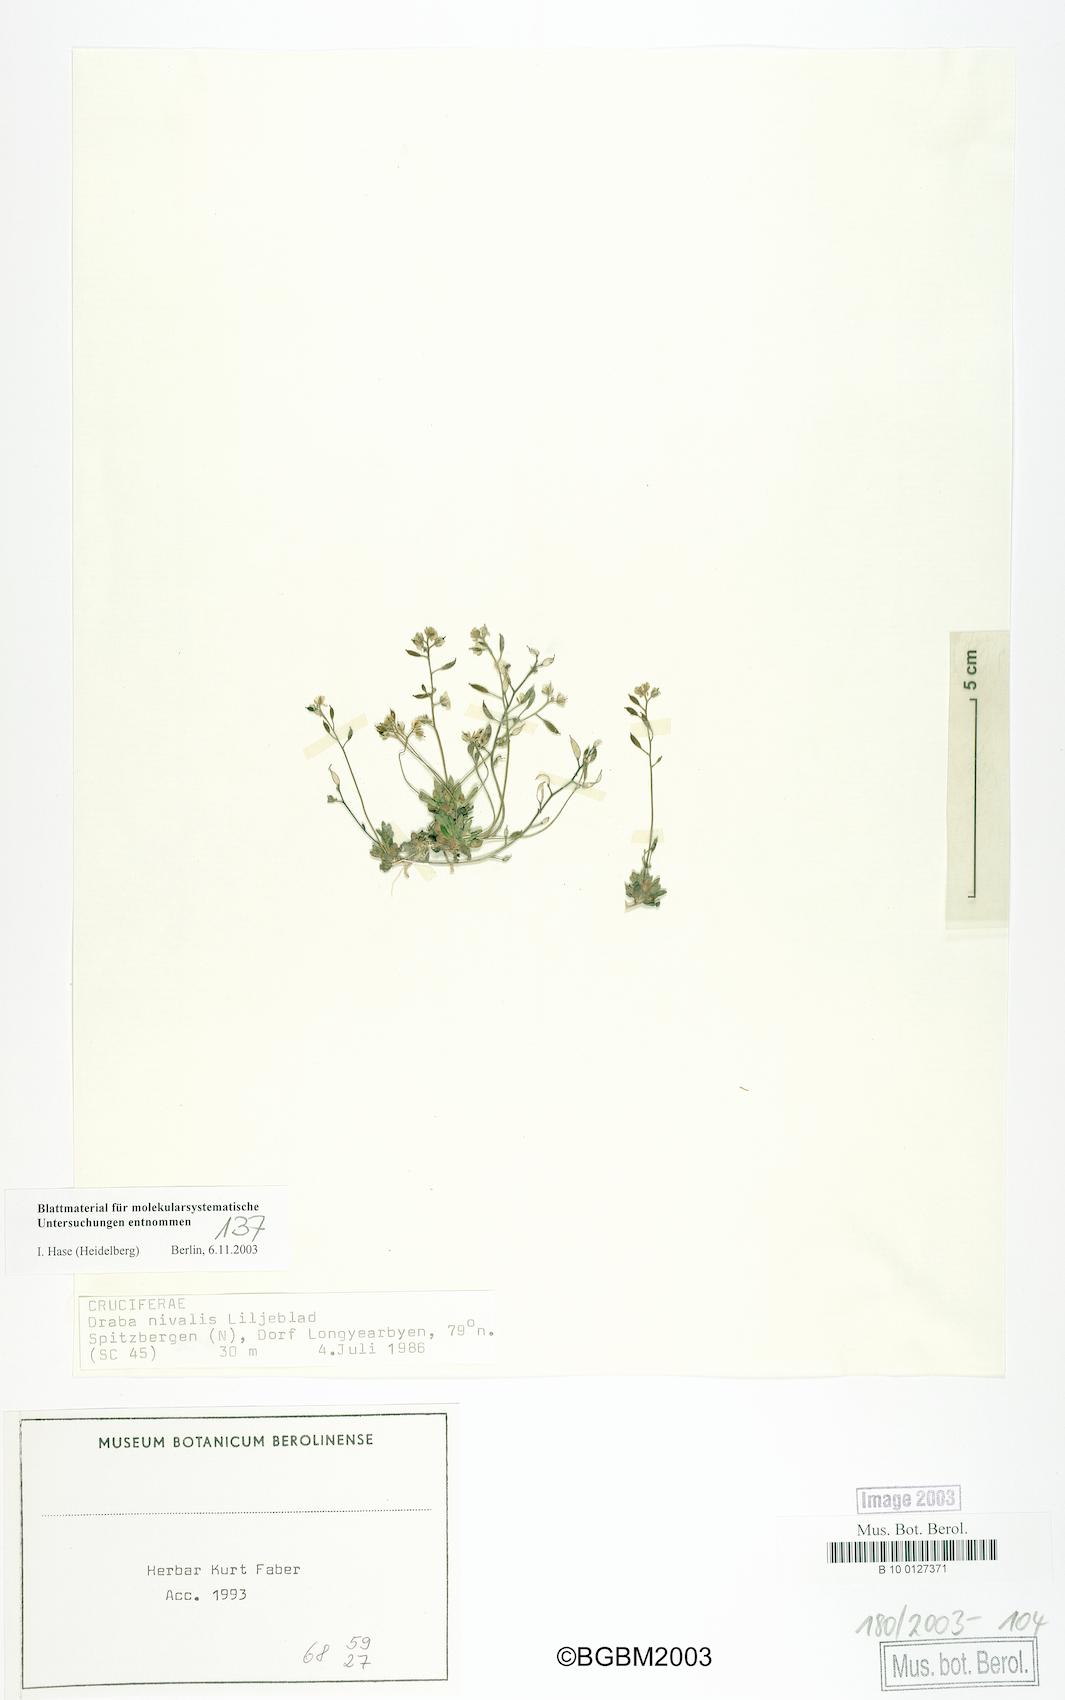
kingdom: Plantae
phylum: Tracheophyta
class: Magnoliopsida
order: Brassicales
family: Brassicaceae
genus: Draba
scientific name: Draba nivalis
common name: Snow draba
